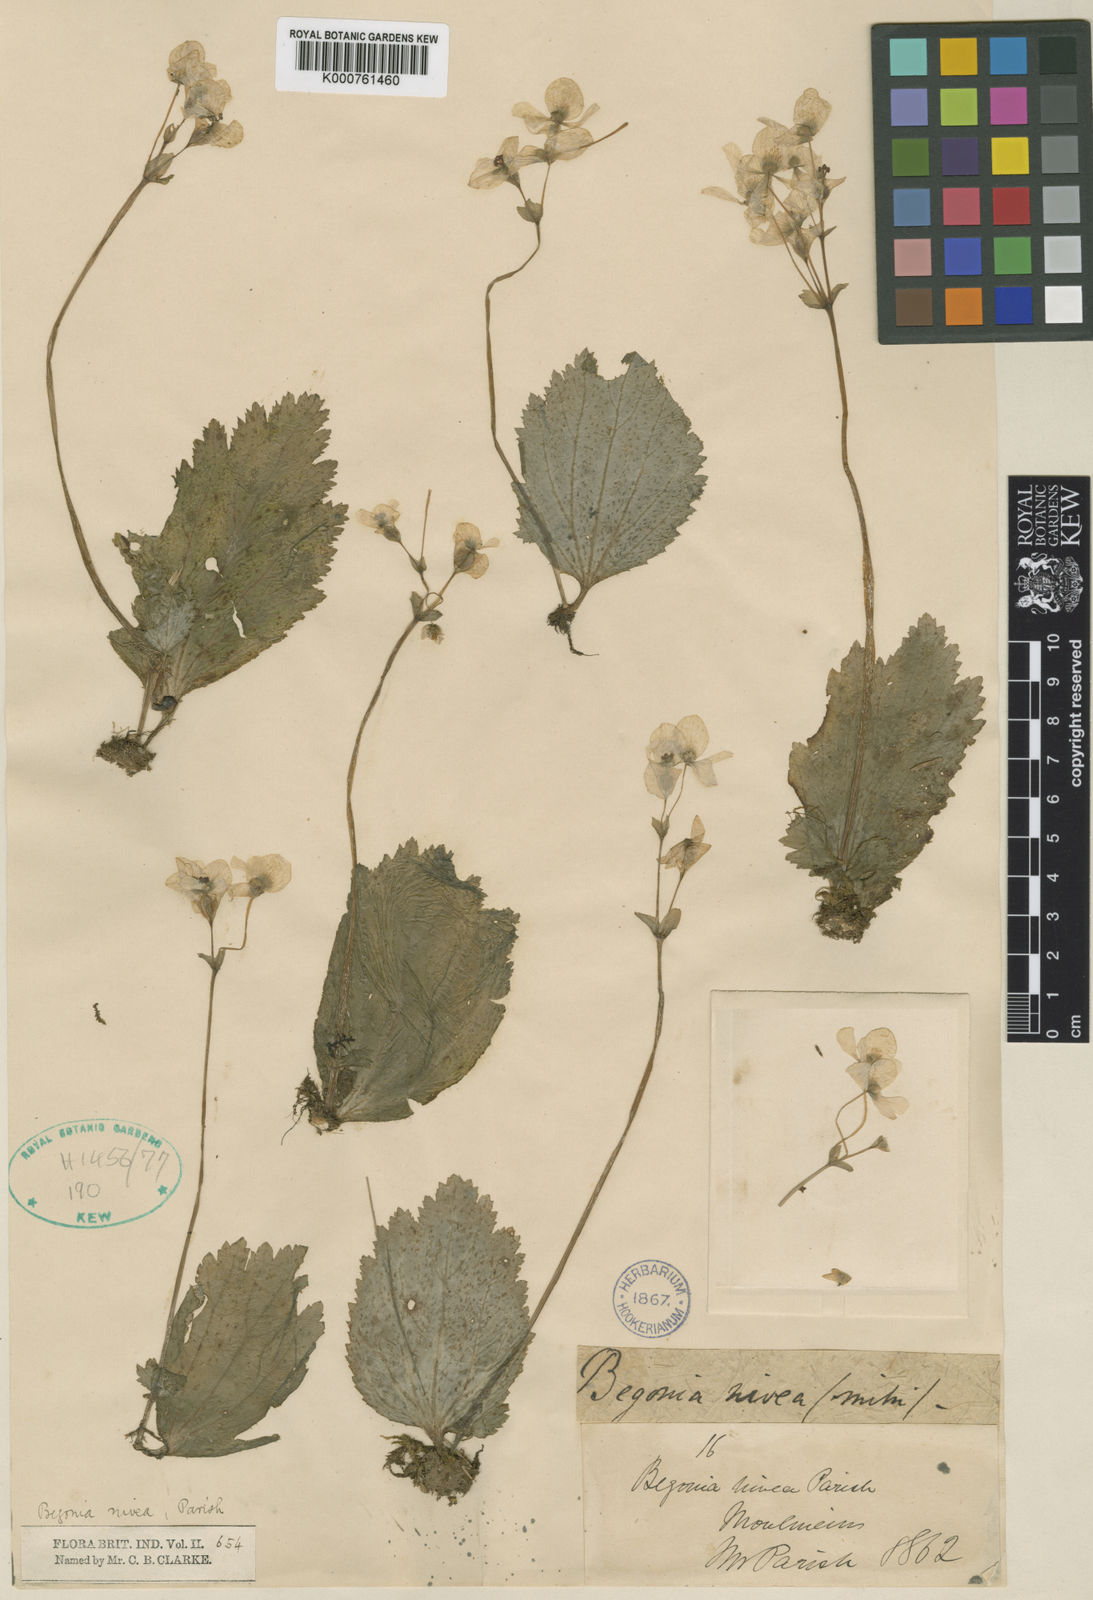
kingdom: Plantae
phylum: Tracheophyta
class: Magnoliopsida
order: Cucurbitales
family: Begoniaceae
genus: Begonia
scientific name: Begonia nivea
